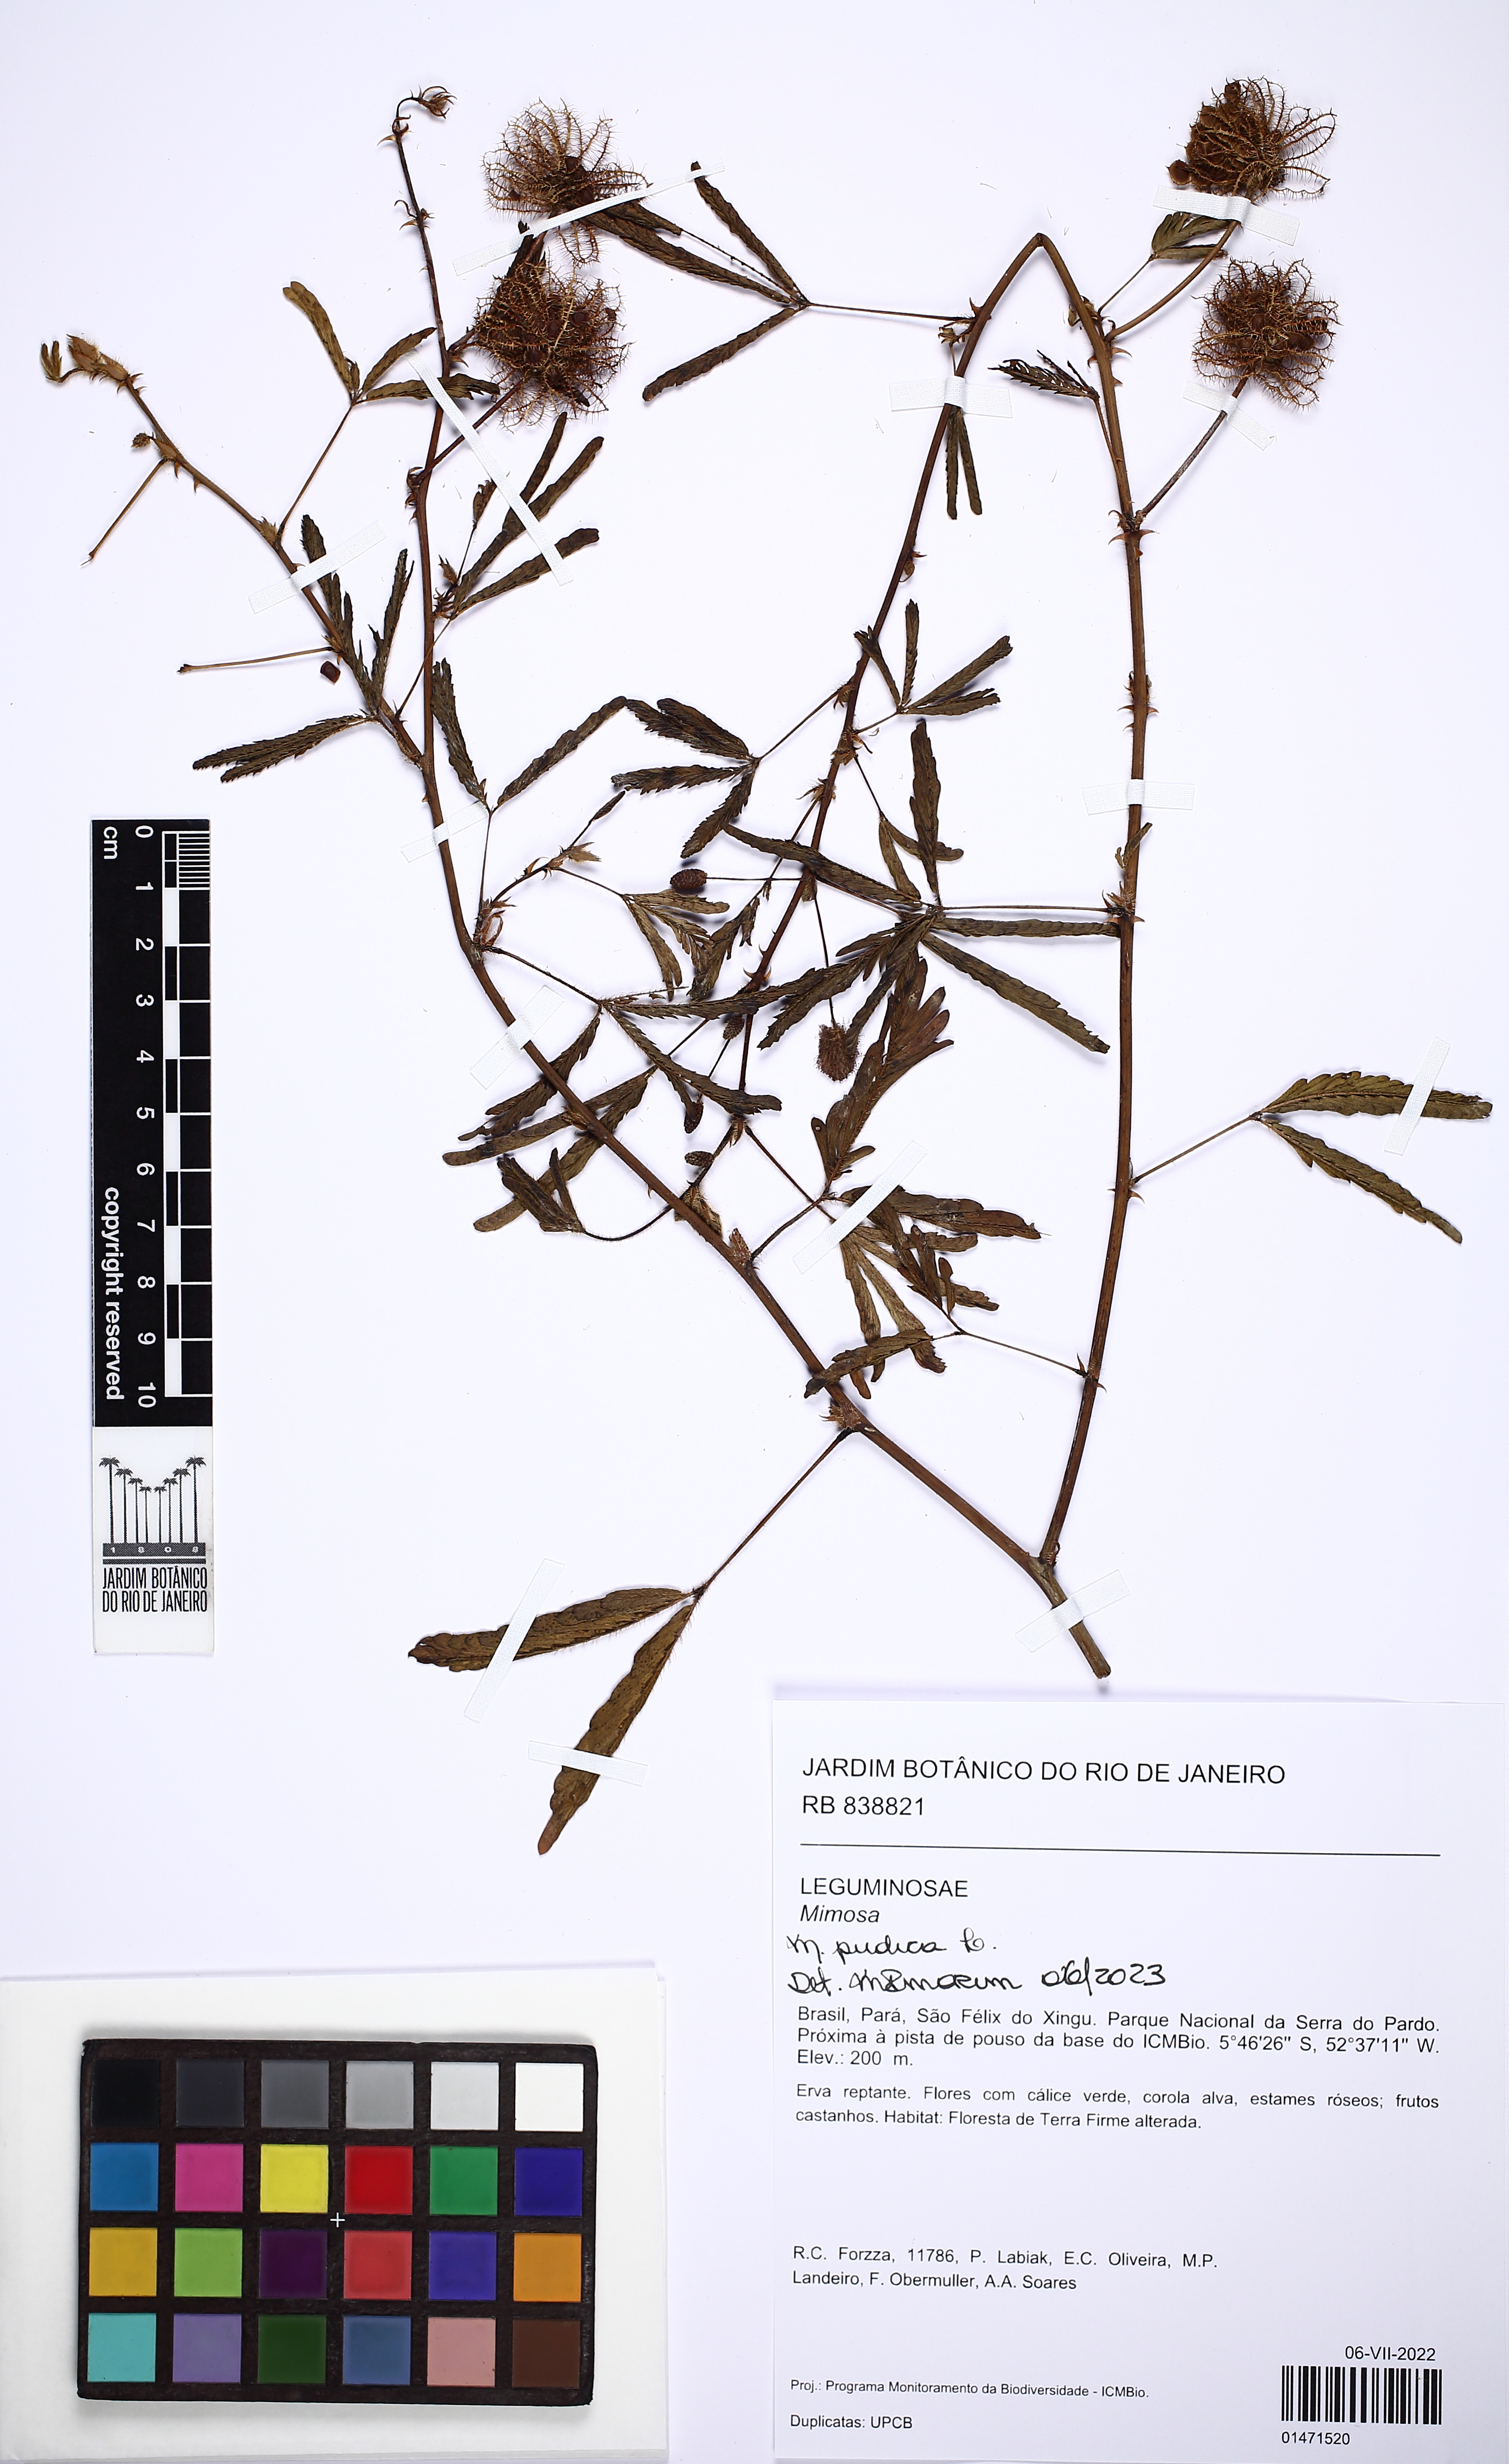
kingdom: Plantae
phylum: Tracheophyta
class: Magnoliopsida
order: Fabales
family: Fabaceae
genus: Mimosa
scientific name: Mimosa pudica
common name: Sensitive plant
